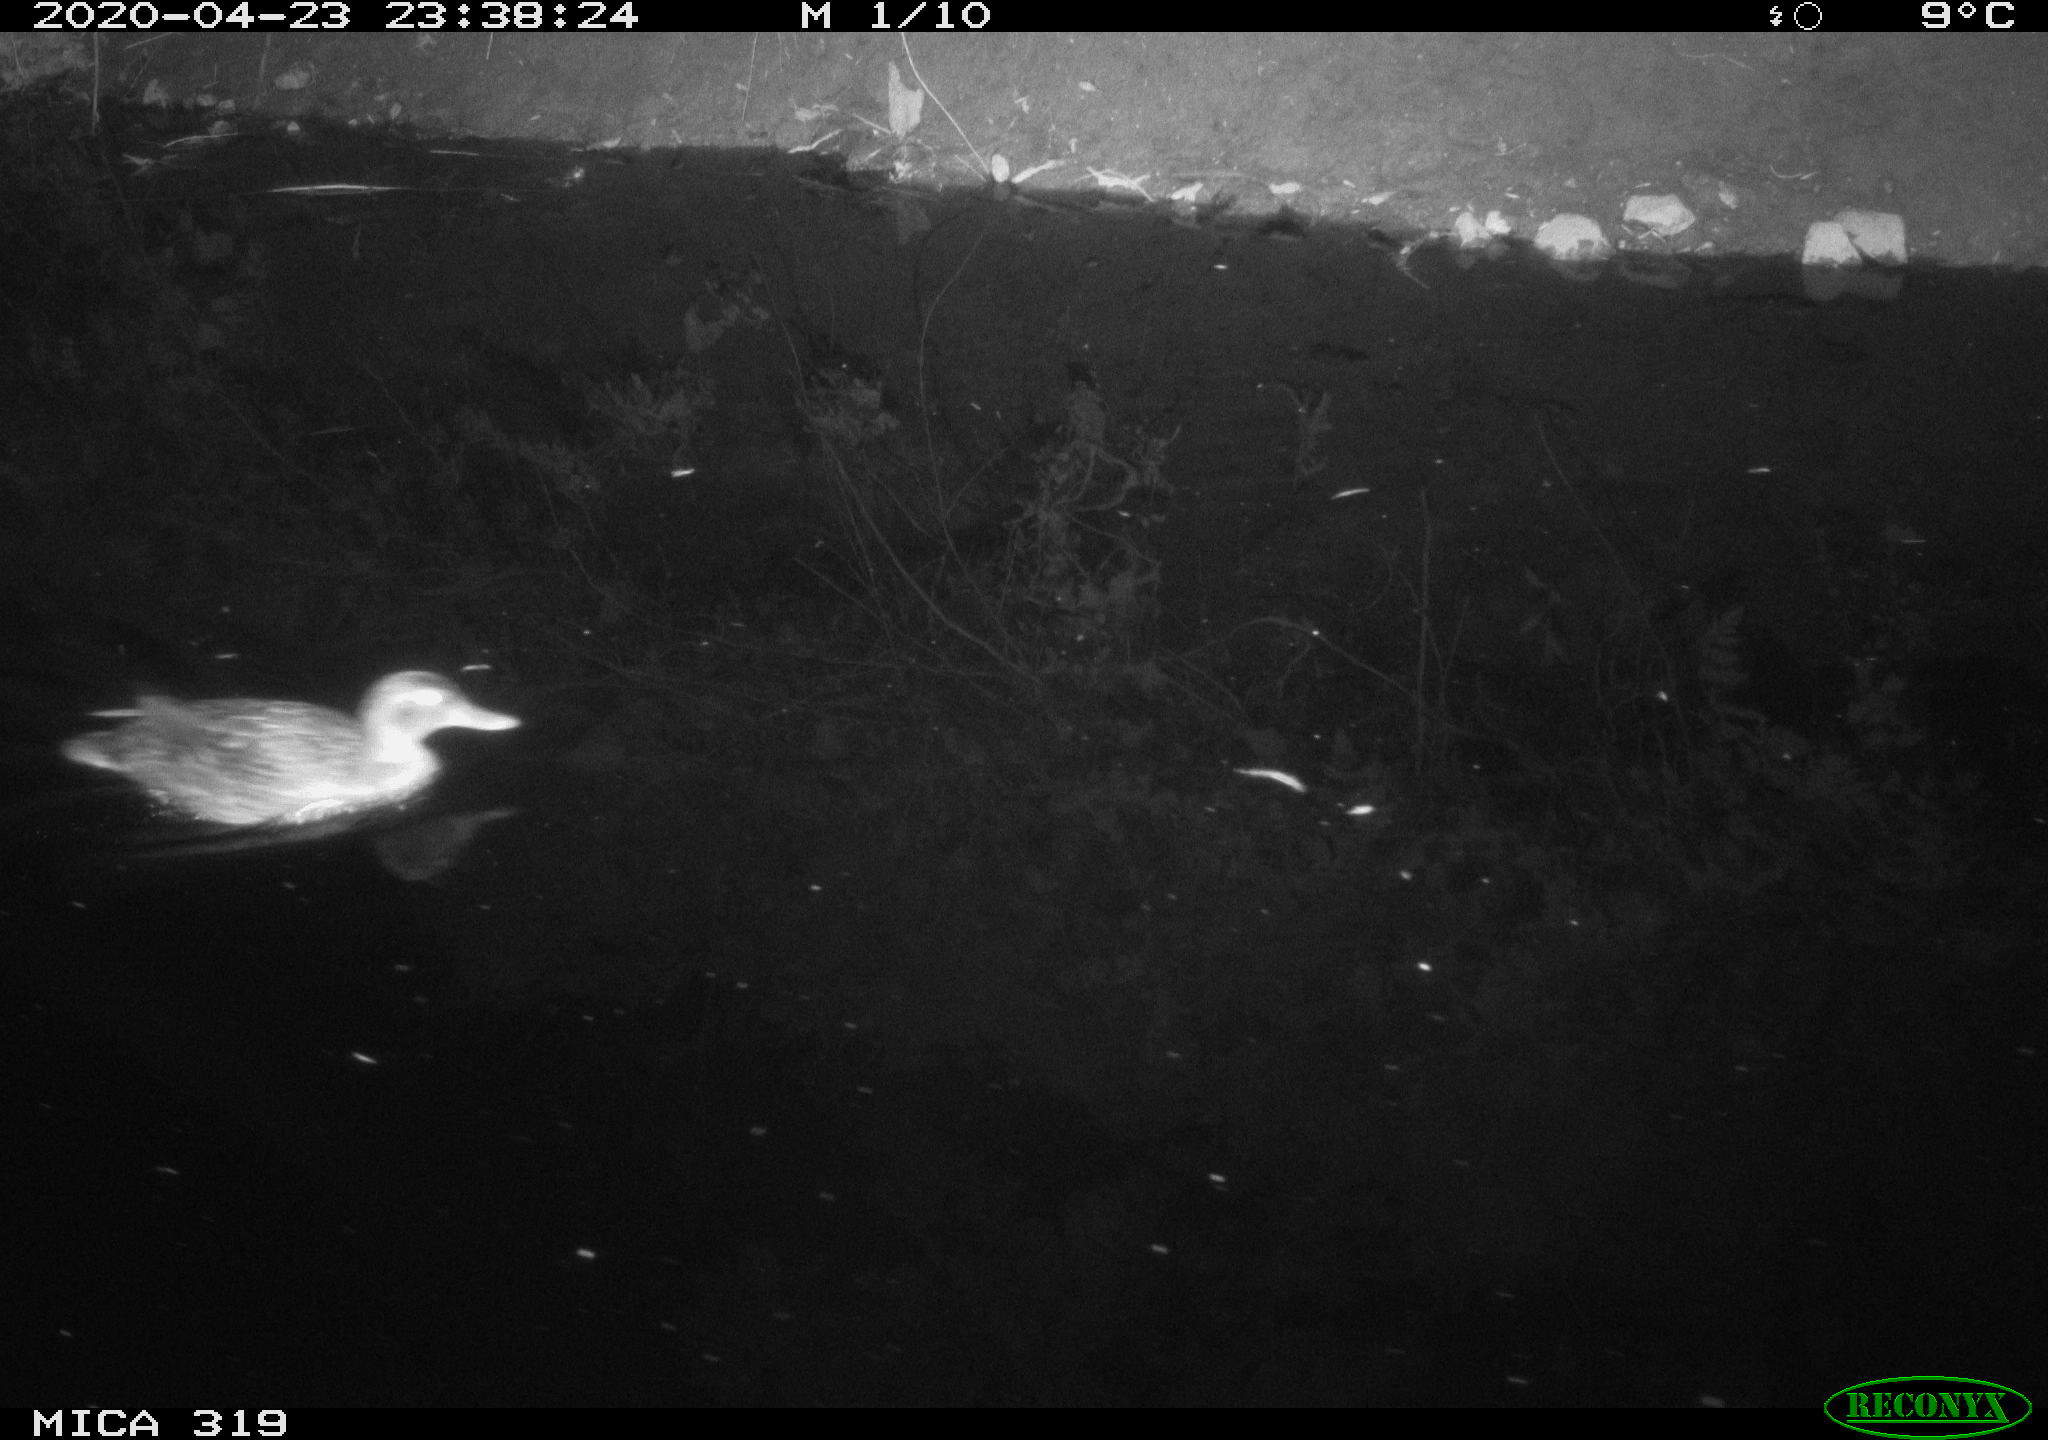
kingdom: Animalia
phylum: Chordata
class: Aves
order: Anseriformes
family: Anatidae
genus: Anas
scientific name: Anas platyrhynchos
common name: Mallard
